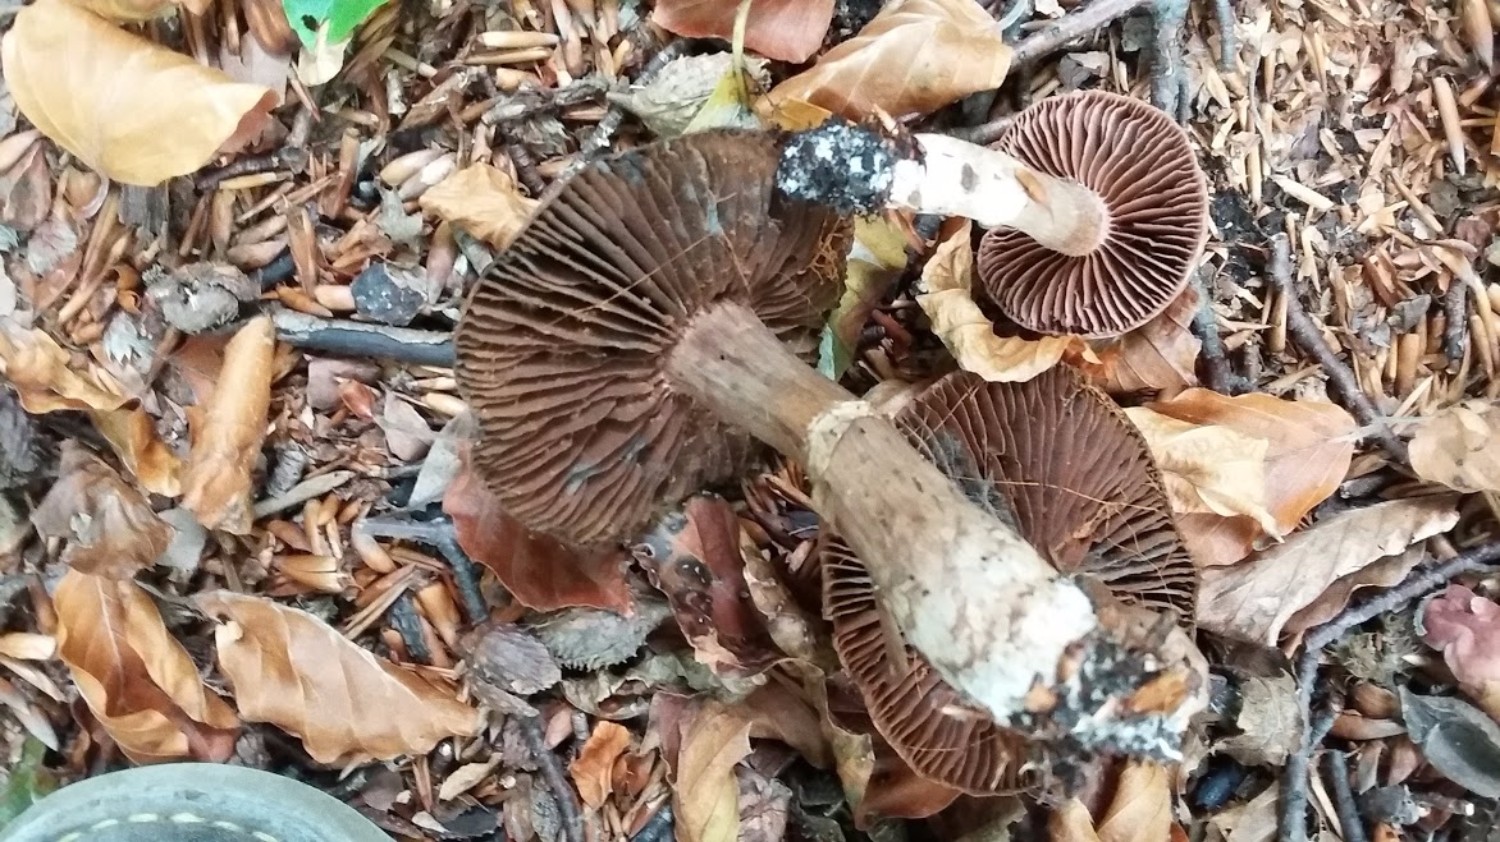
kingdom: Fungi
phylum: Basidiomycota
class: Agaricomycetes
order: Agaricales
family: Cortinariaceae
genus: Cortinarius
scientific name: Cortinarius torvus
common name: champignonagtig slørhat
